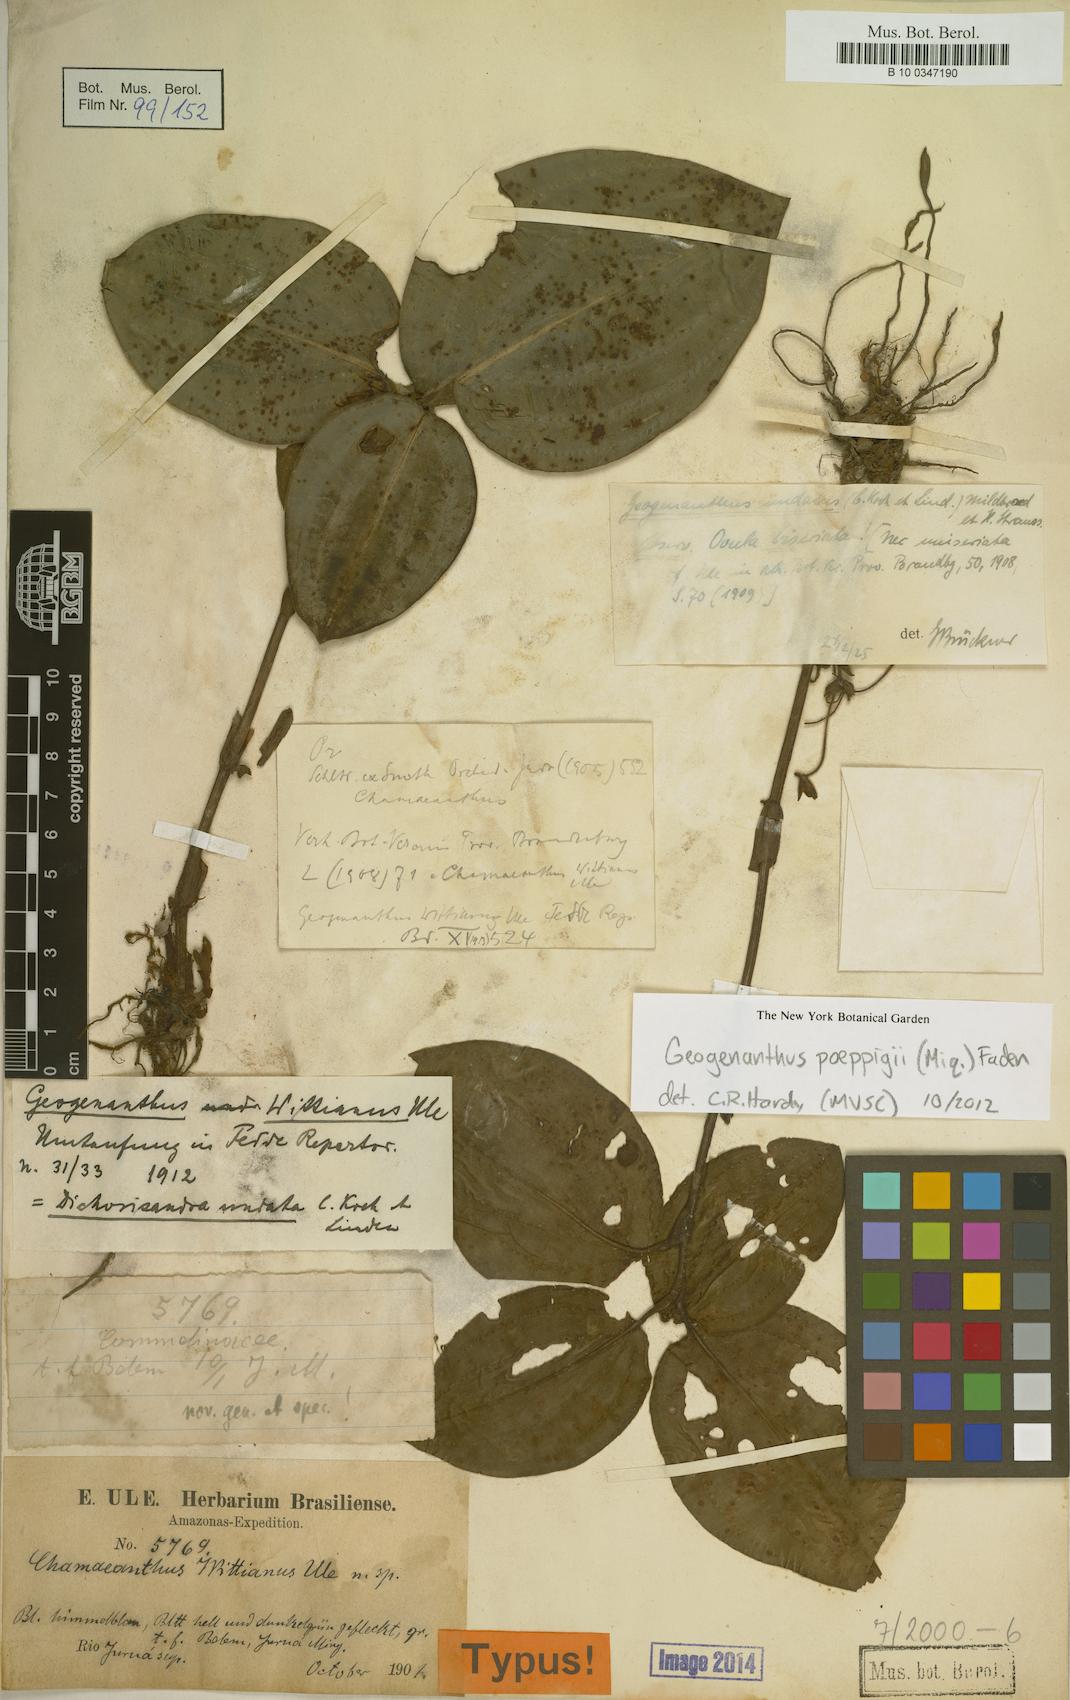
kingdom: Plantae
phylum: Tracheophyta
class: Liliopsida
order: Commelinales
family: Commelinaceae
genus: Geogenanthus
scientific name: Geogenanthus poeppigii
